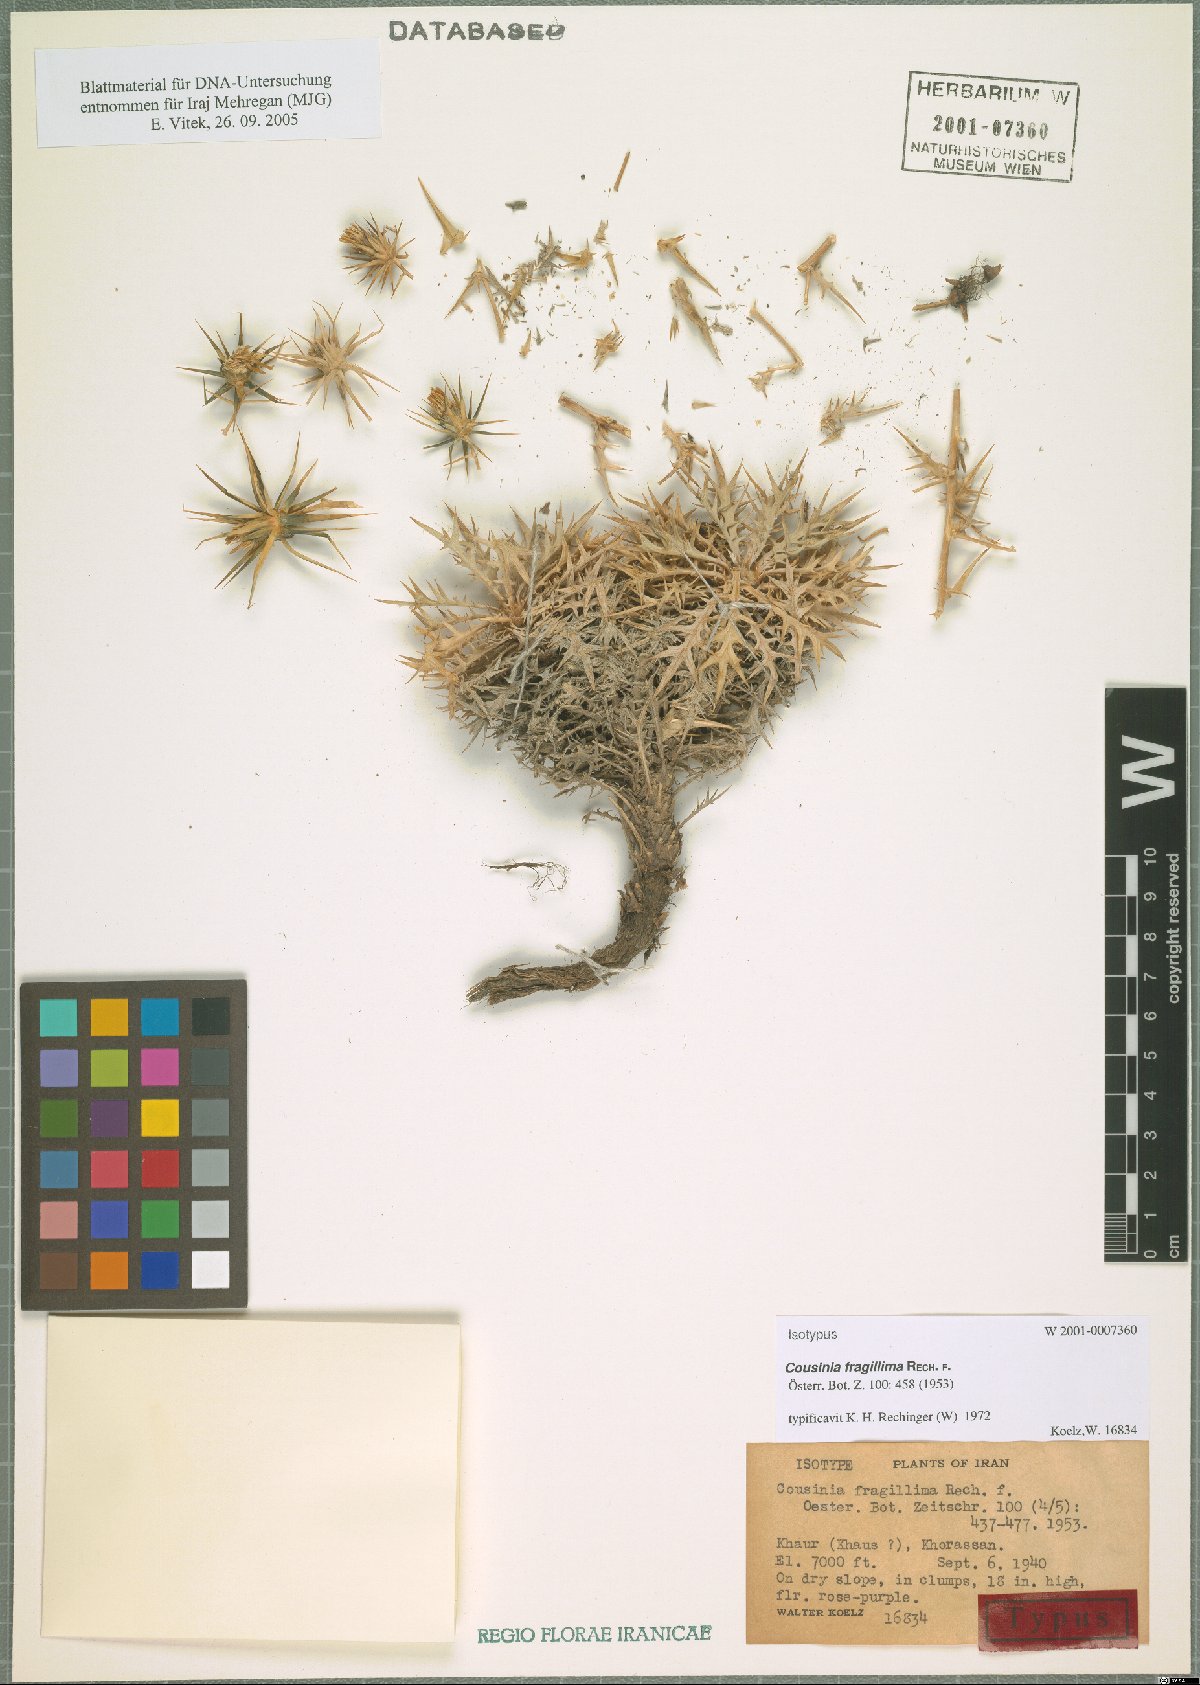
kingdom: Plantae
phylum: Tracheophyta
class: Magnoliopsida
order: Asterales
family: Asteraceae
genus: Cousinia
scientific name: Cousinia fragillima
